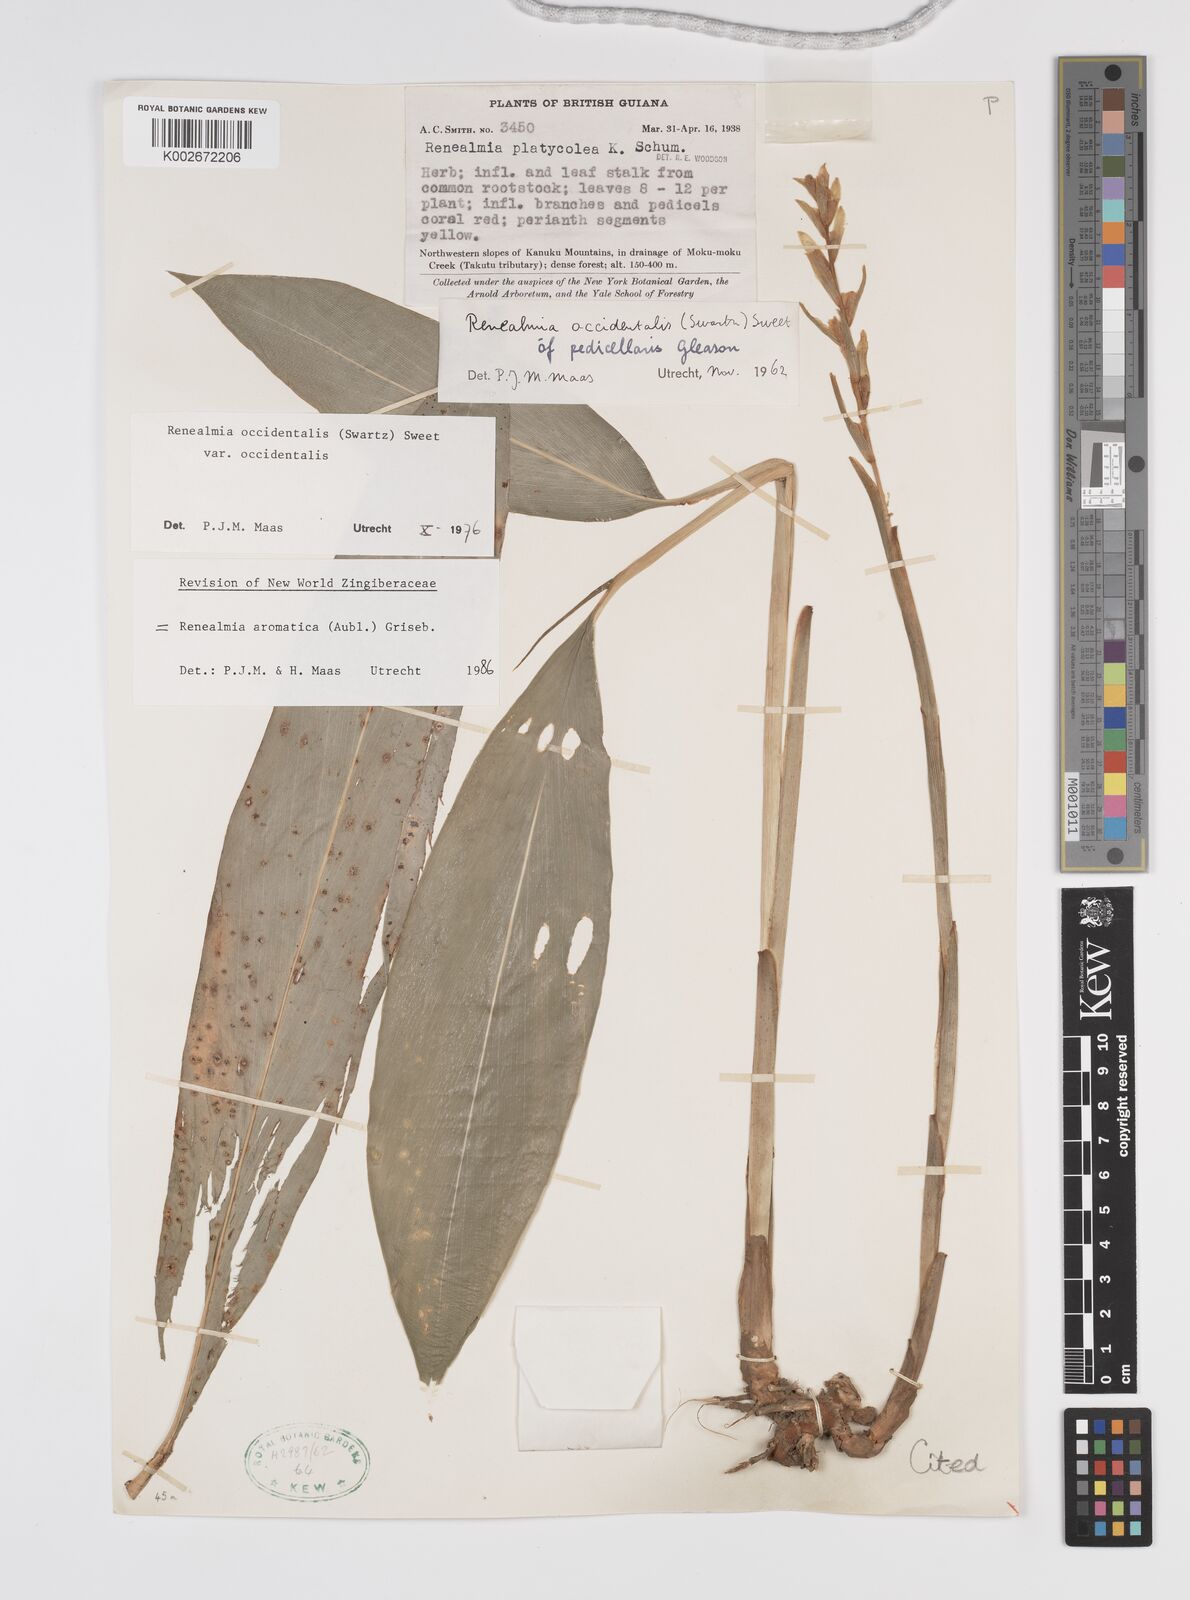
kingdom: Plantae
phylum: Tracheophyta
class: Liliopsida
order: Zingiberales
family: Zingiberaceae
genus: Renealmia
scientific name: Renealmia aromatica
